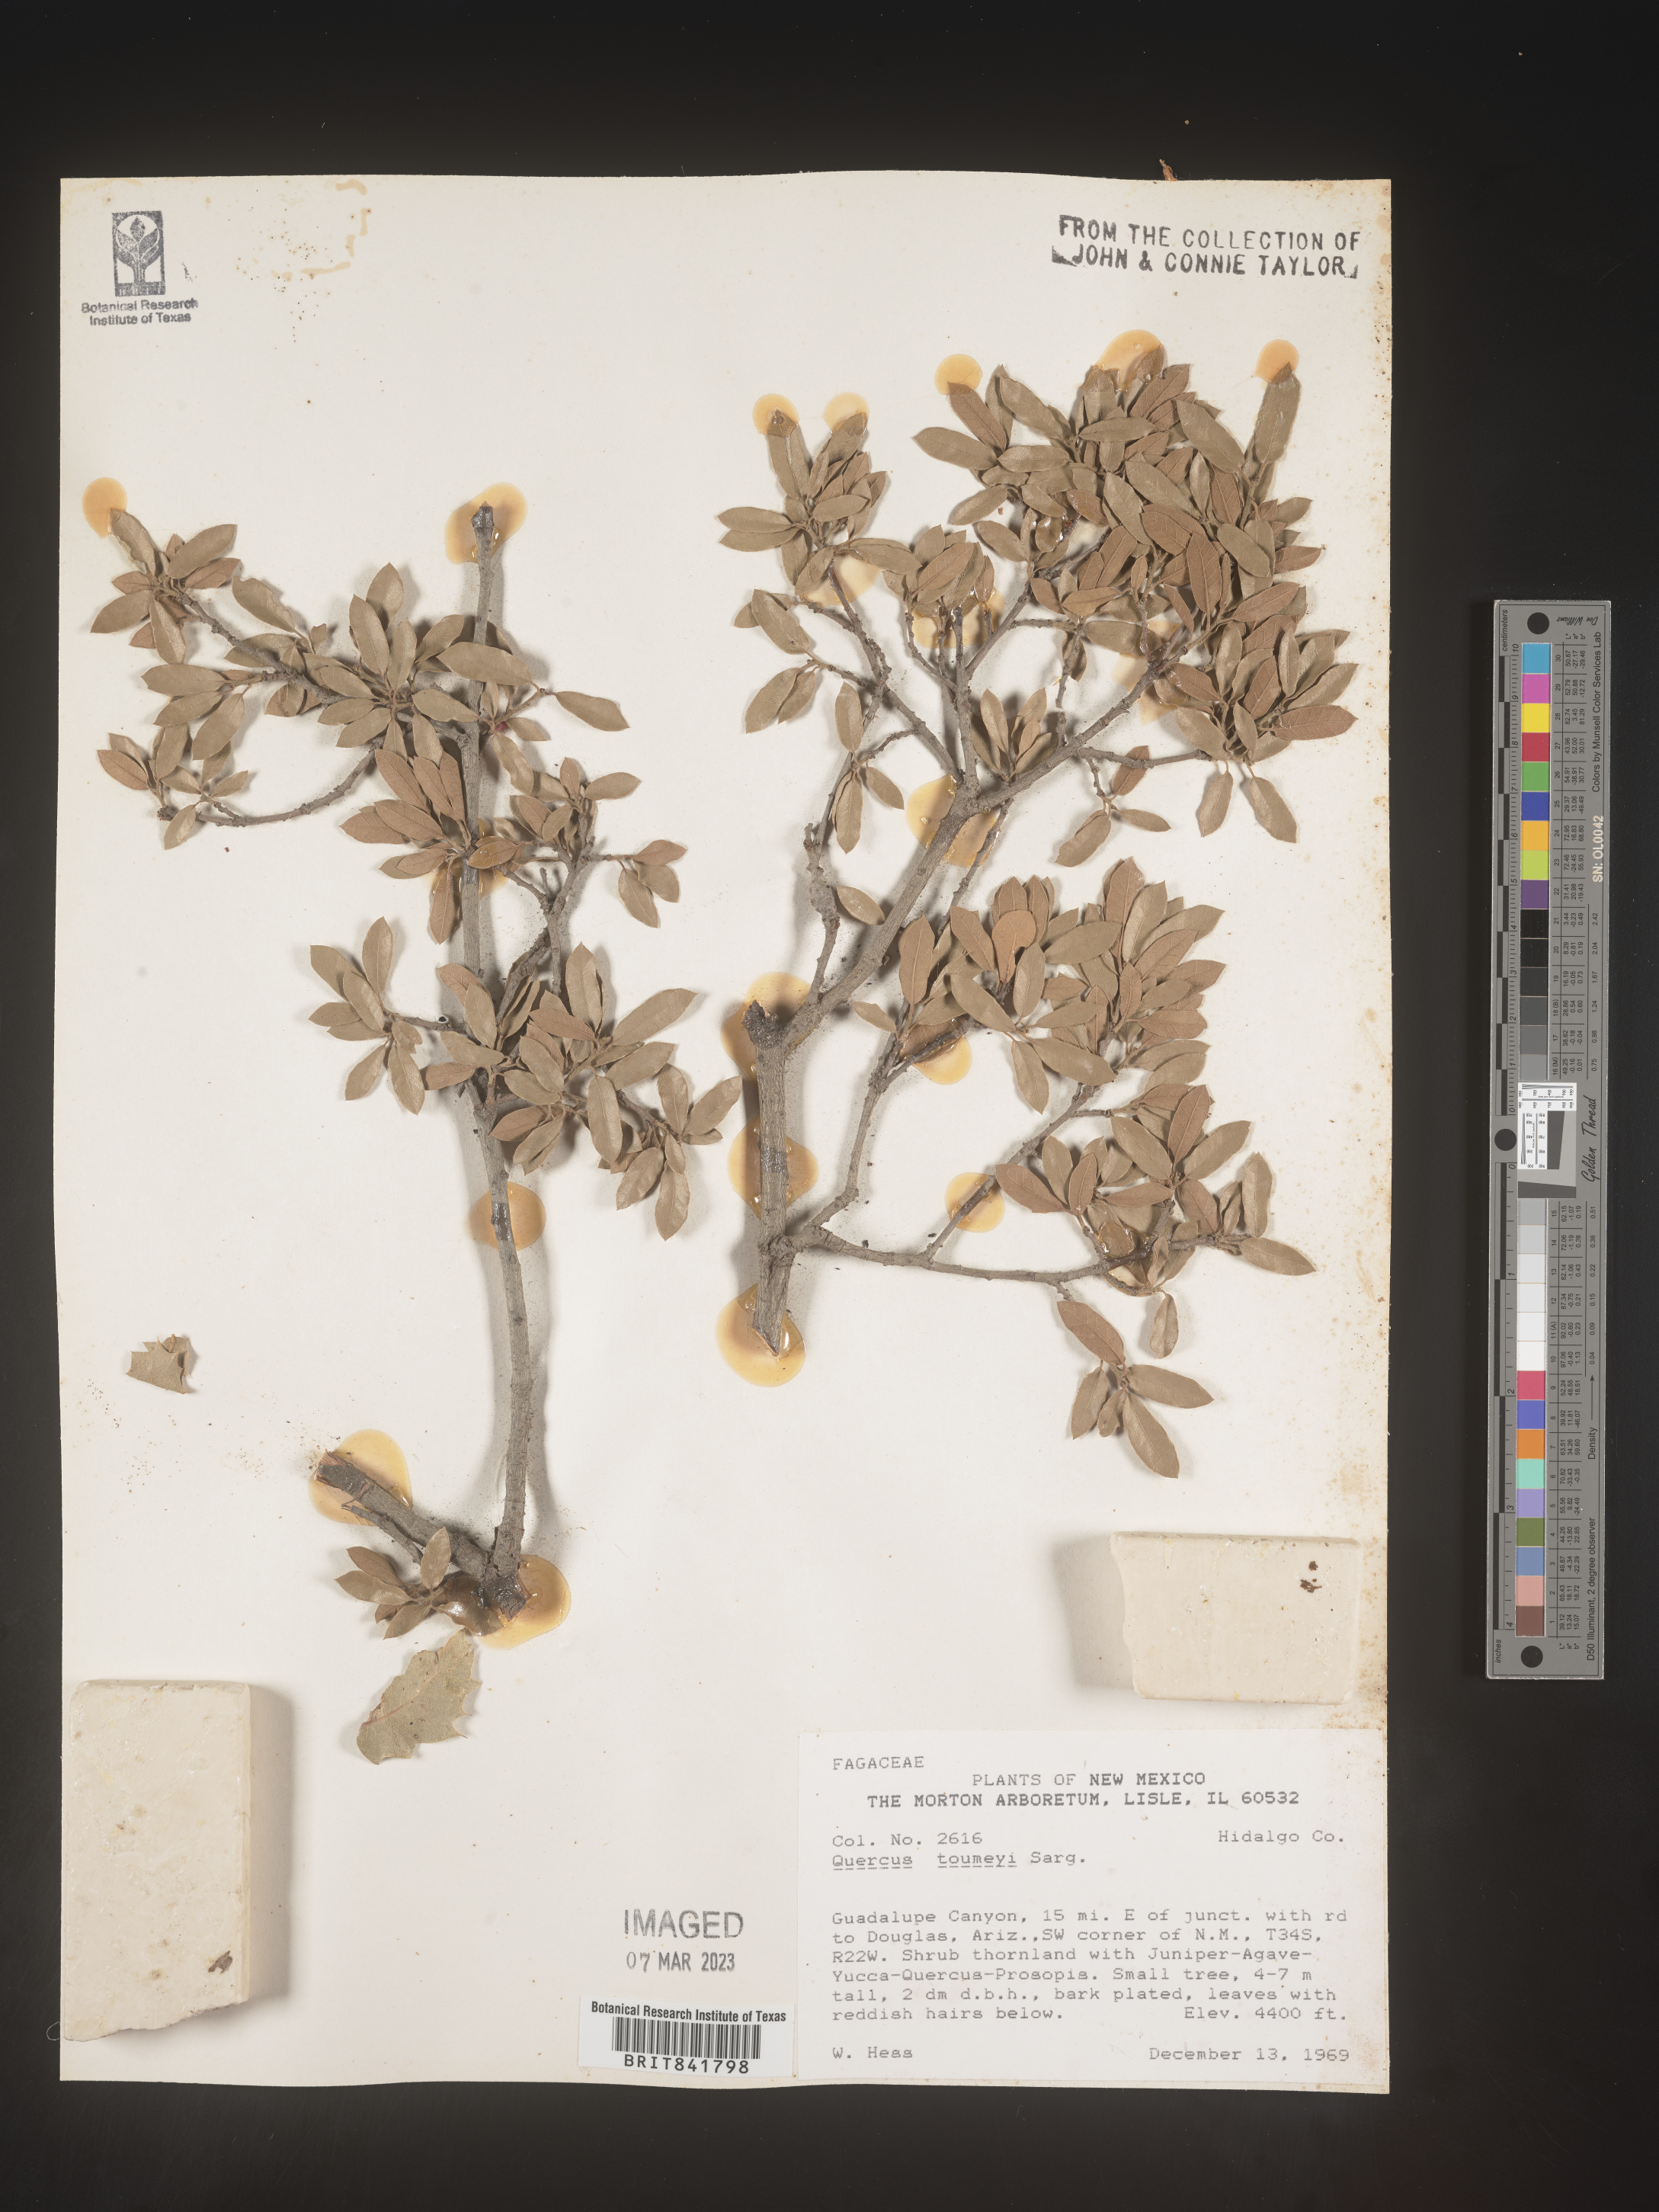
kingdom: Plantae
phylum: Tracheophyta
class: Magnoliopsida
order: Fagales
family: Fagaceae
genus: Quercus
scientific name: Quercus
